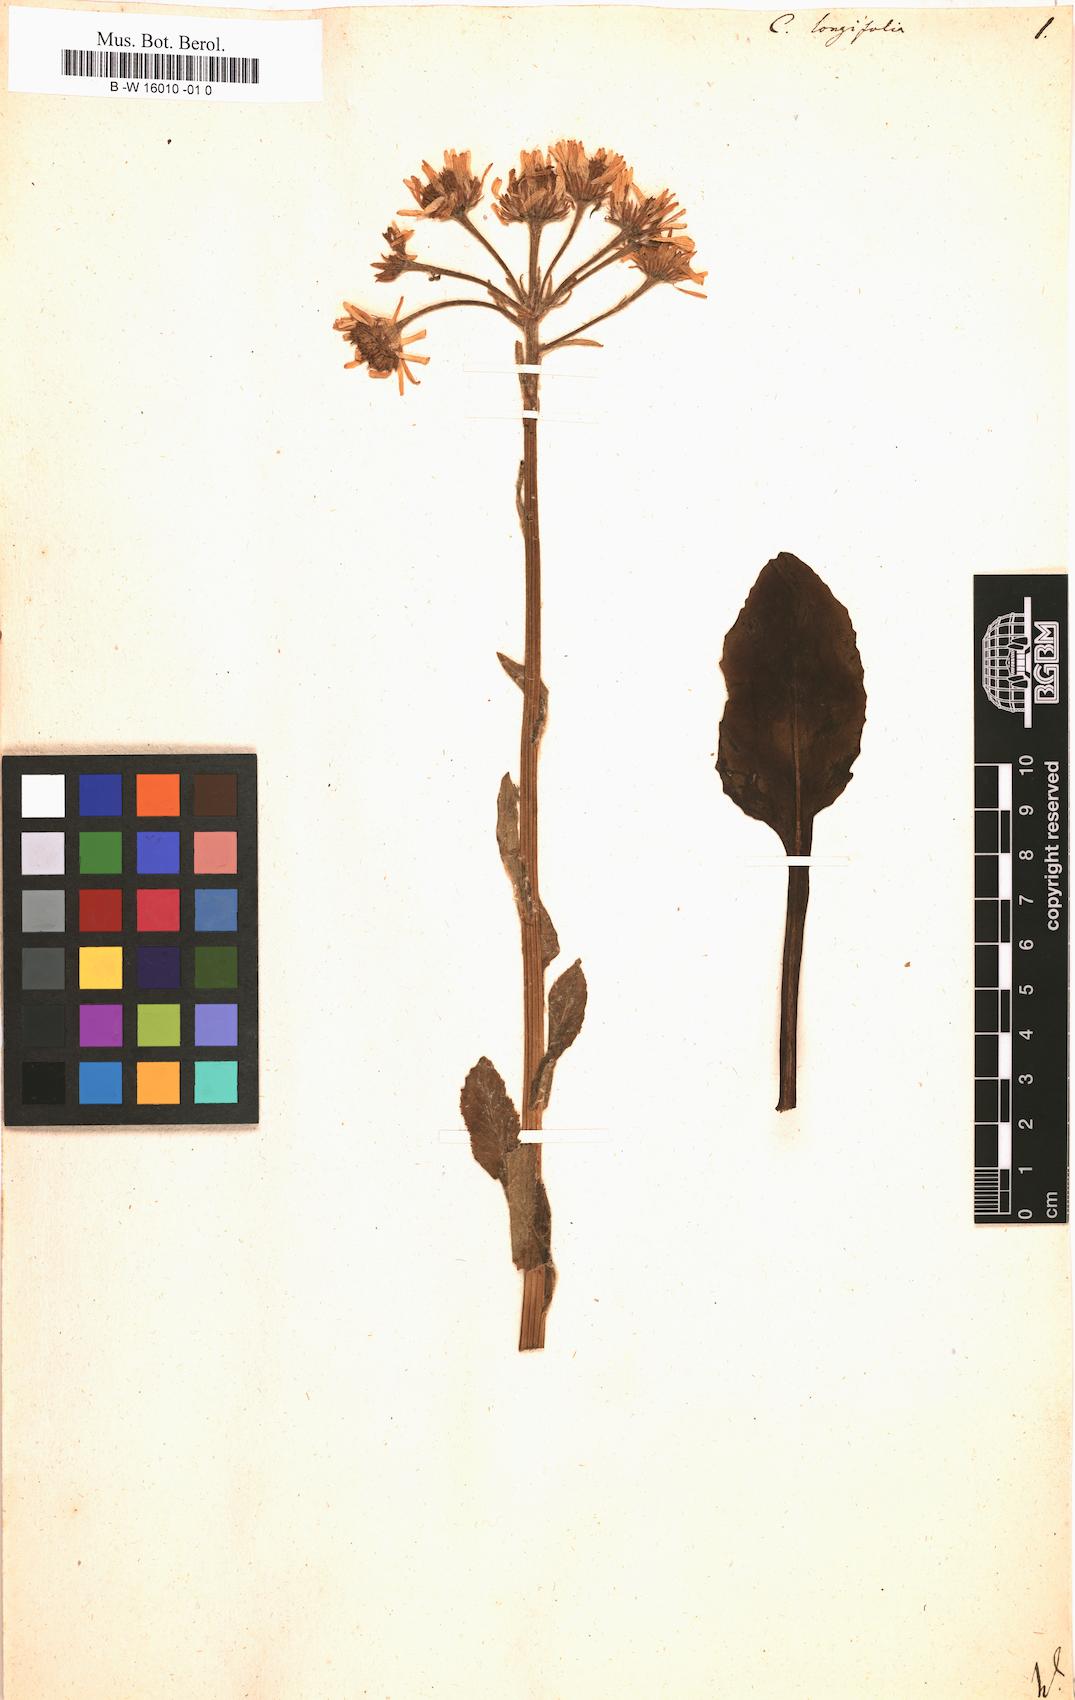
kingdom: Plantae
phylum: Tracheophyta
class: Magnoliopsida
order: Asterales
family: Asteraceae
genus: Tephroseris
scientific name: Tephroseris
